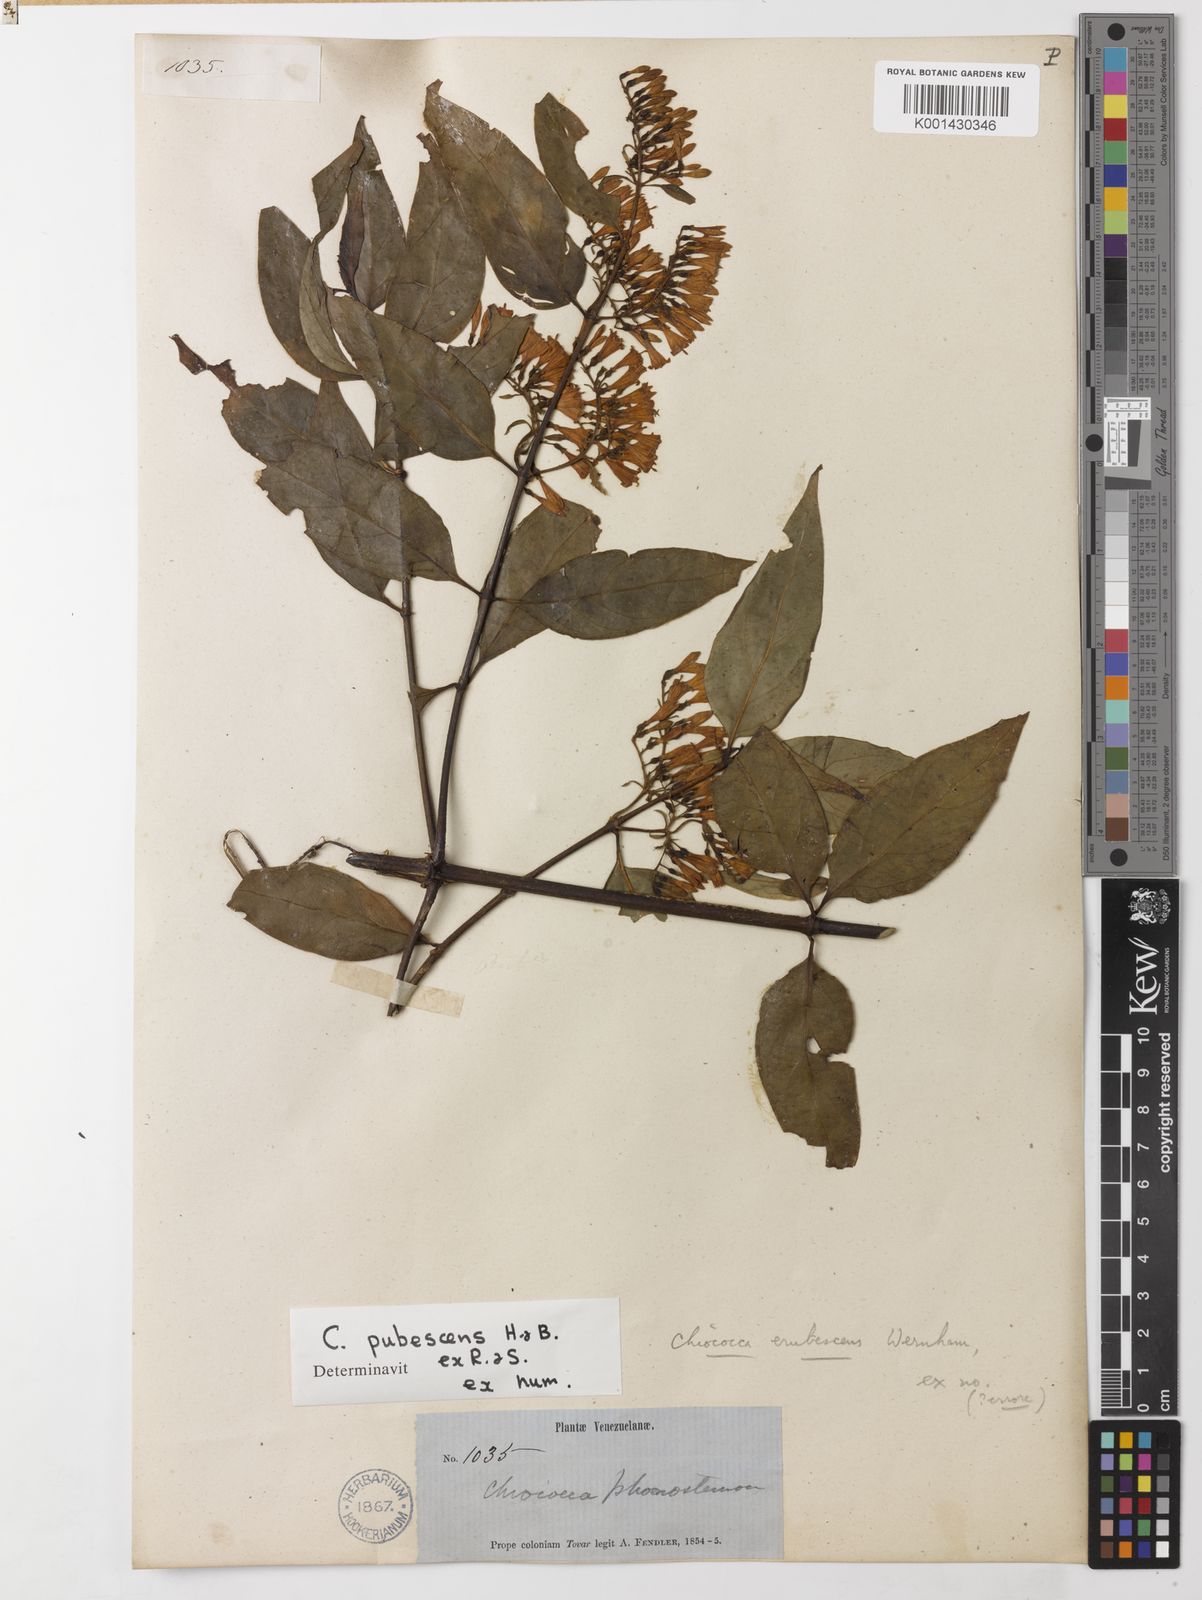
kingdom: Plantae
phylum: Tracheophyta
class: Magnoliopsida
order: Gentianales
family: Rubiaceae
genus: Chiococca
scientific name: Chiococca alba
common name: Snowberry
